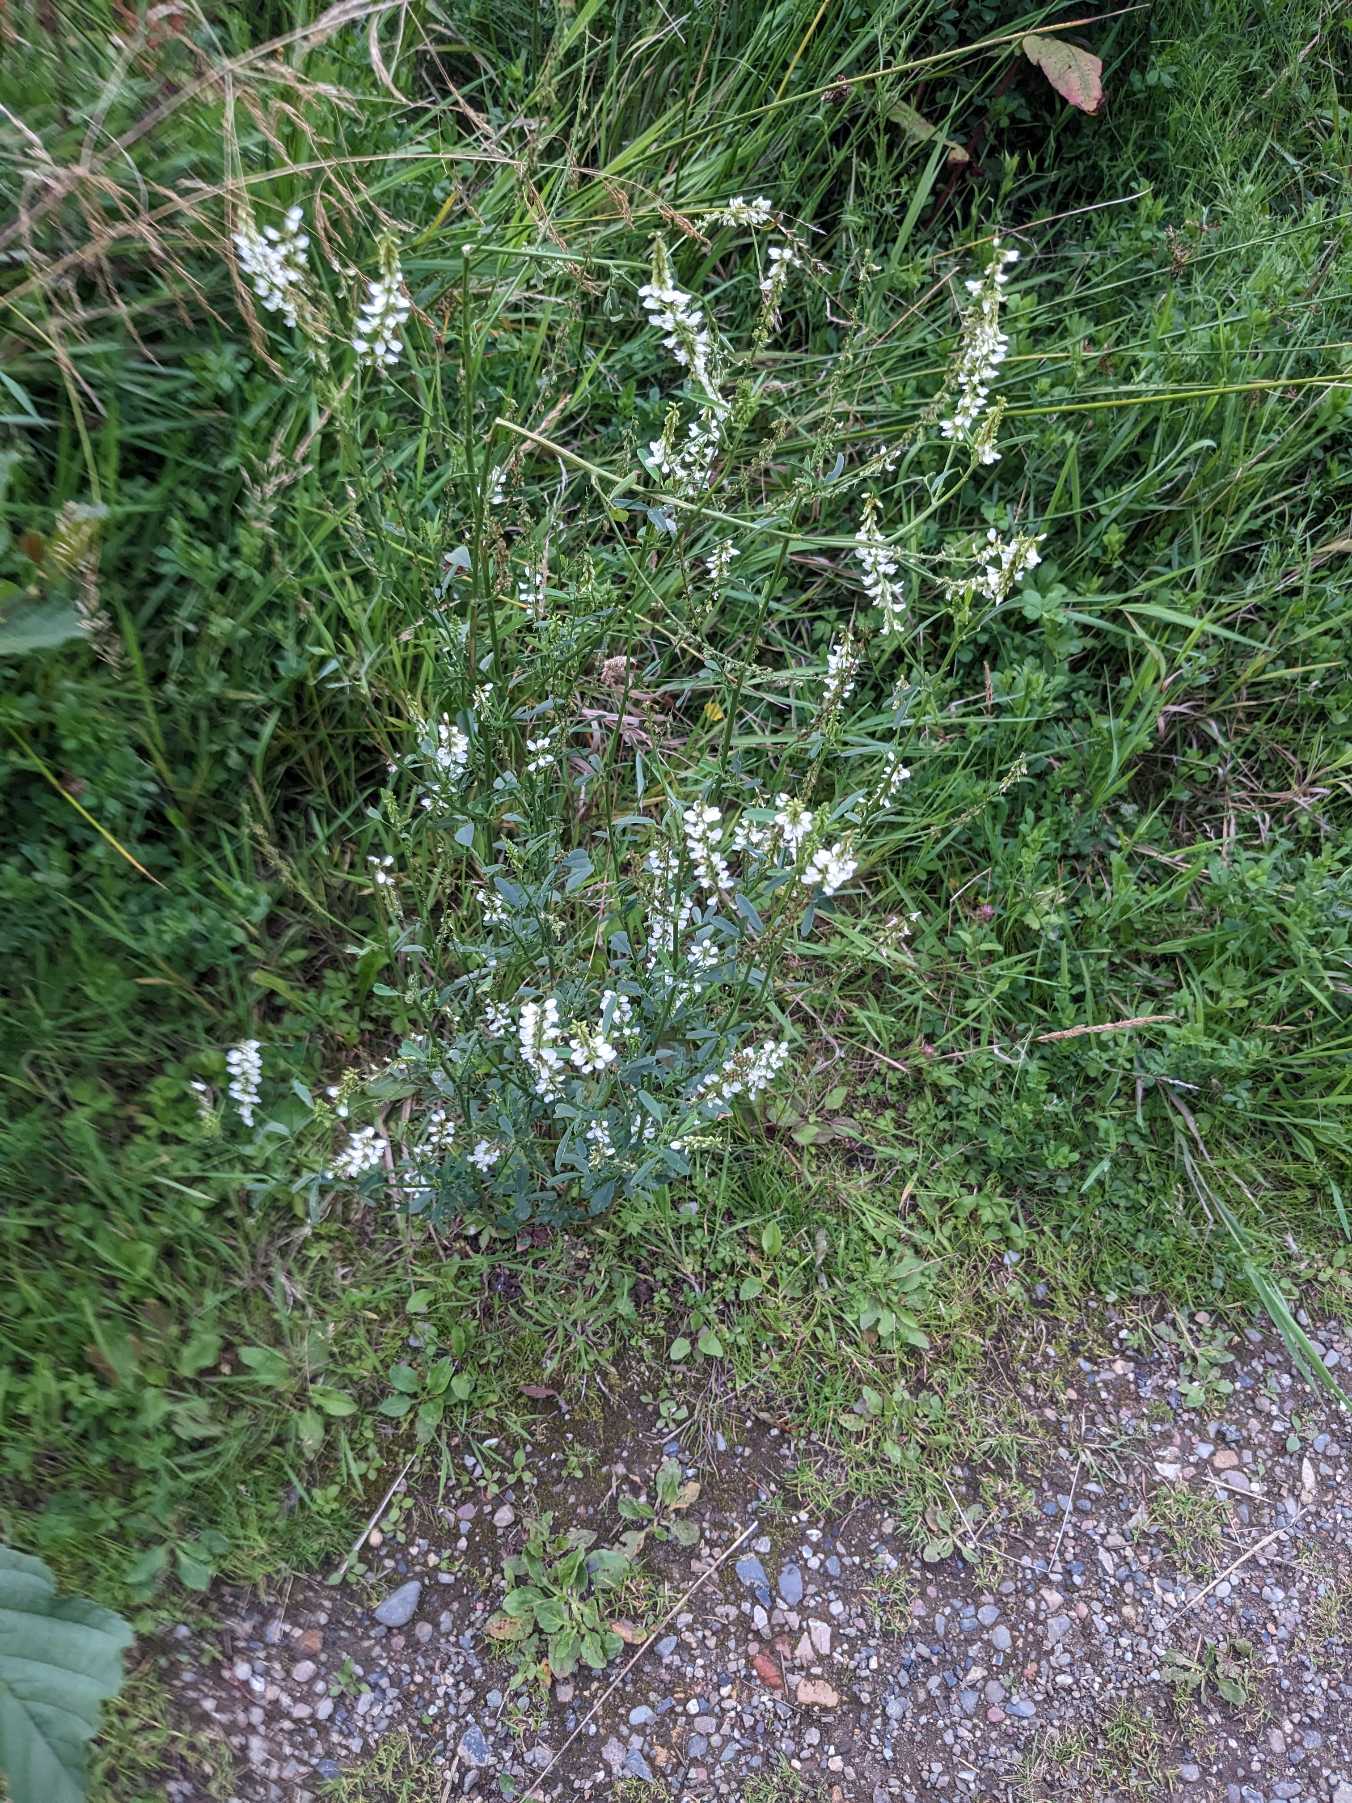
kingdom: Plantae
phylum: Tracheophyta
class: Magnoliopsida
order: Fabales
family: Fabaceae
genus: Melilotus
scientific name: Melilotus albus
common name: Hvid stenkløver
